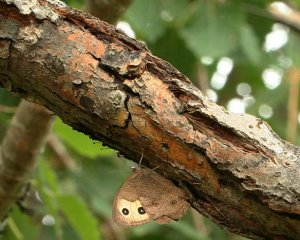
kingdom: Animalia
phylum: Arthropoda
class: Insecta
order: Lepidoptera
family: Nymphalidae
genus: Cercyonis
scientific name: Cercyonis pegala
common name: Common Wood-Nymph
